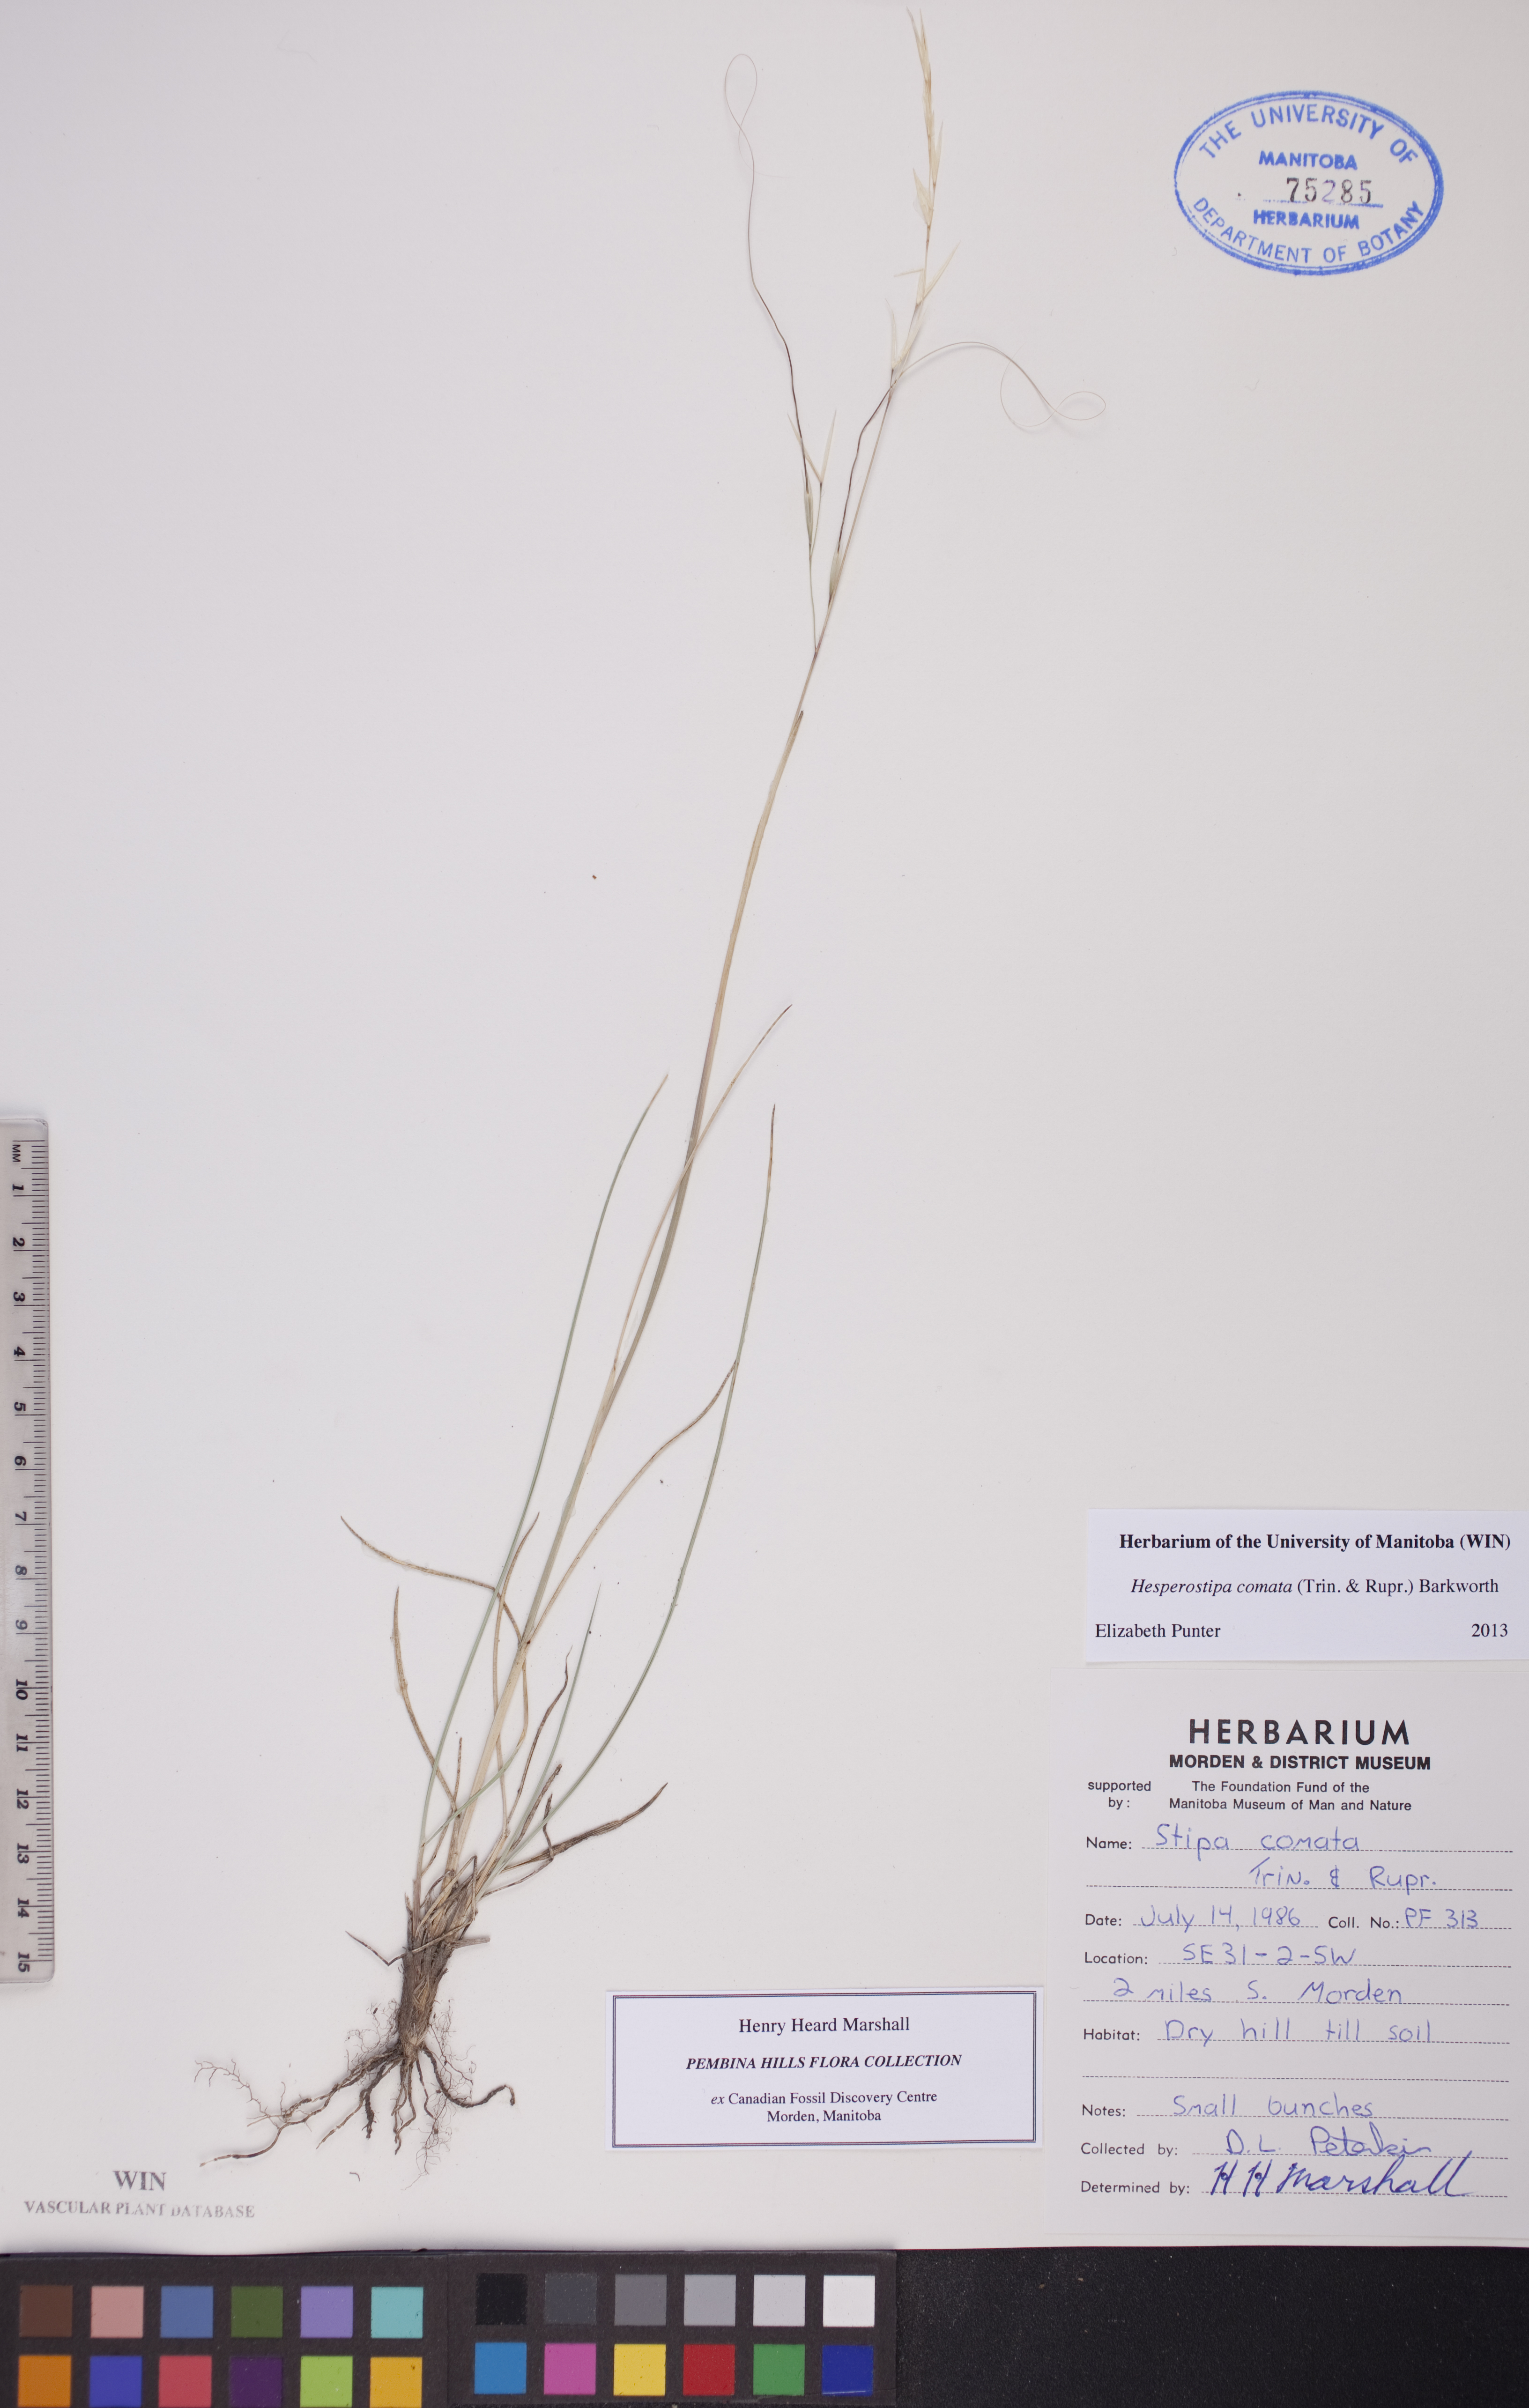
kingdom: Plantae
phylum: Tracheophyta
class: Liliopsida
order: Poales
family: Poaceae
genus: Hesperostipa
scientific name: Hesperostipa comata
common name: Needle-and-thread grass
